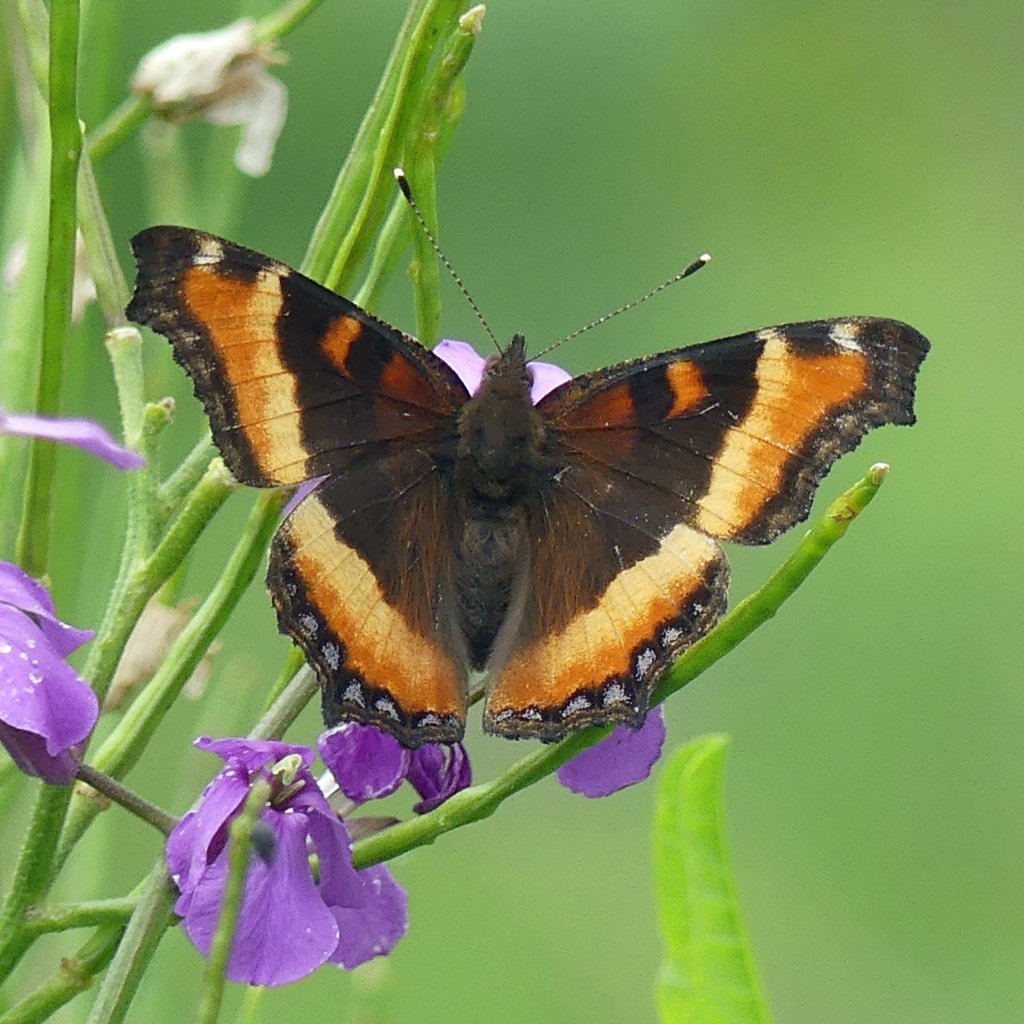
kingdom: Animalia
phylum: Arthropoda
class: Insecta
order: Lepidoptera
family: Nymphalidae
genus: Aglais
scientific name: Aglais milberti
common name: Milbert's Tortoiseshell
